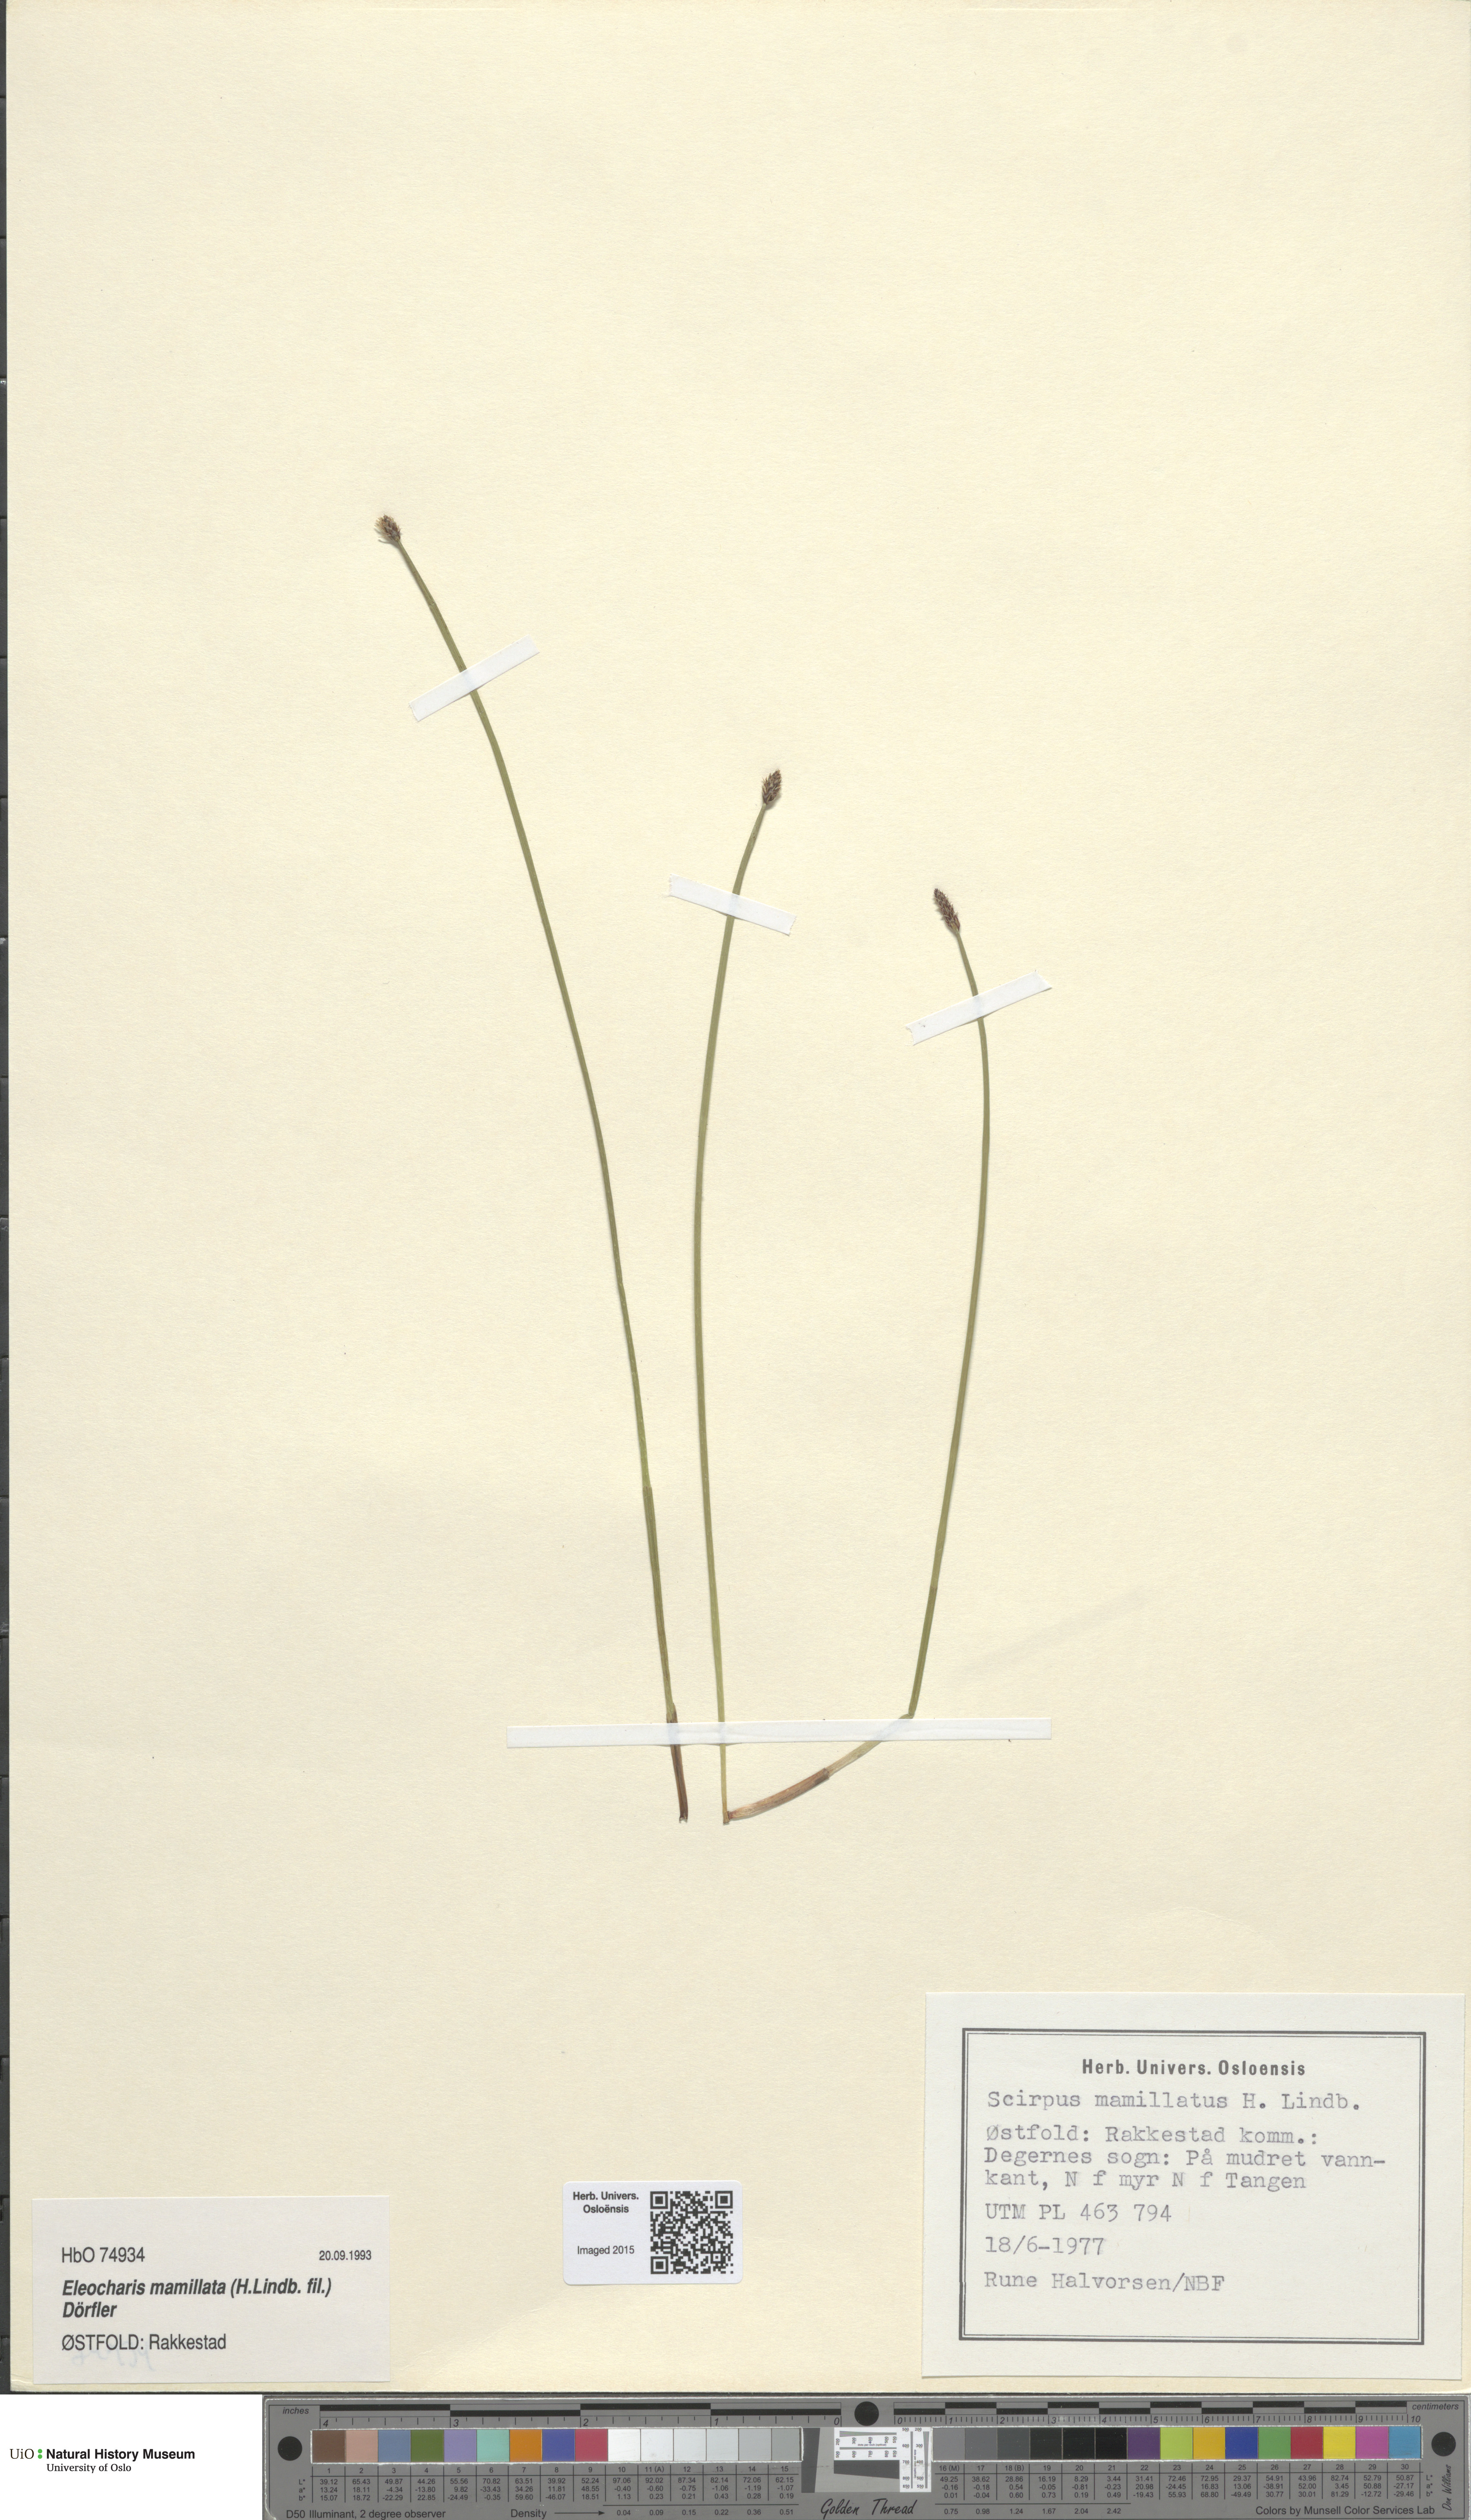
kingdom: Plantae
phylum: Tracheophyta
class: Liliopsida
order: Poales
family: Cyperaceae
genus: Eleocharis
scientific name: Eleocharis mamillata
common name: Northern spike-rush
